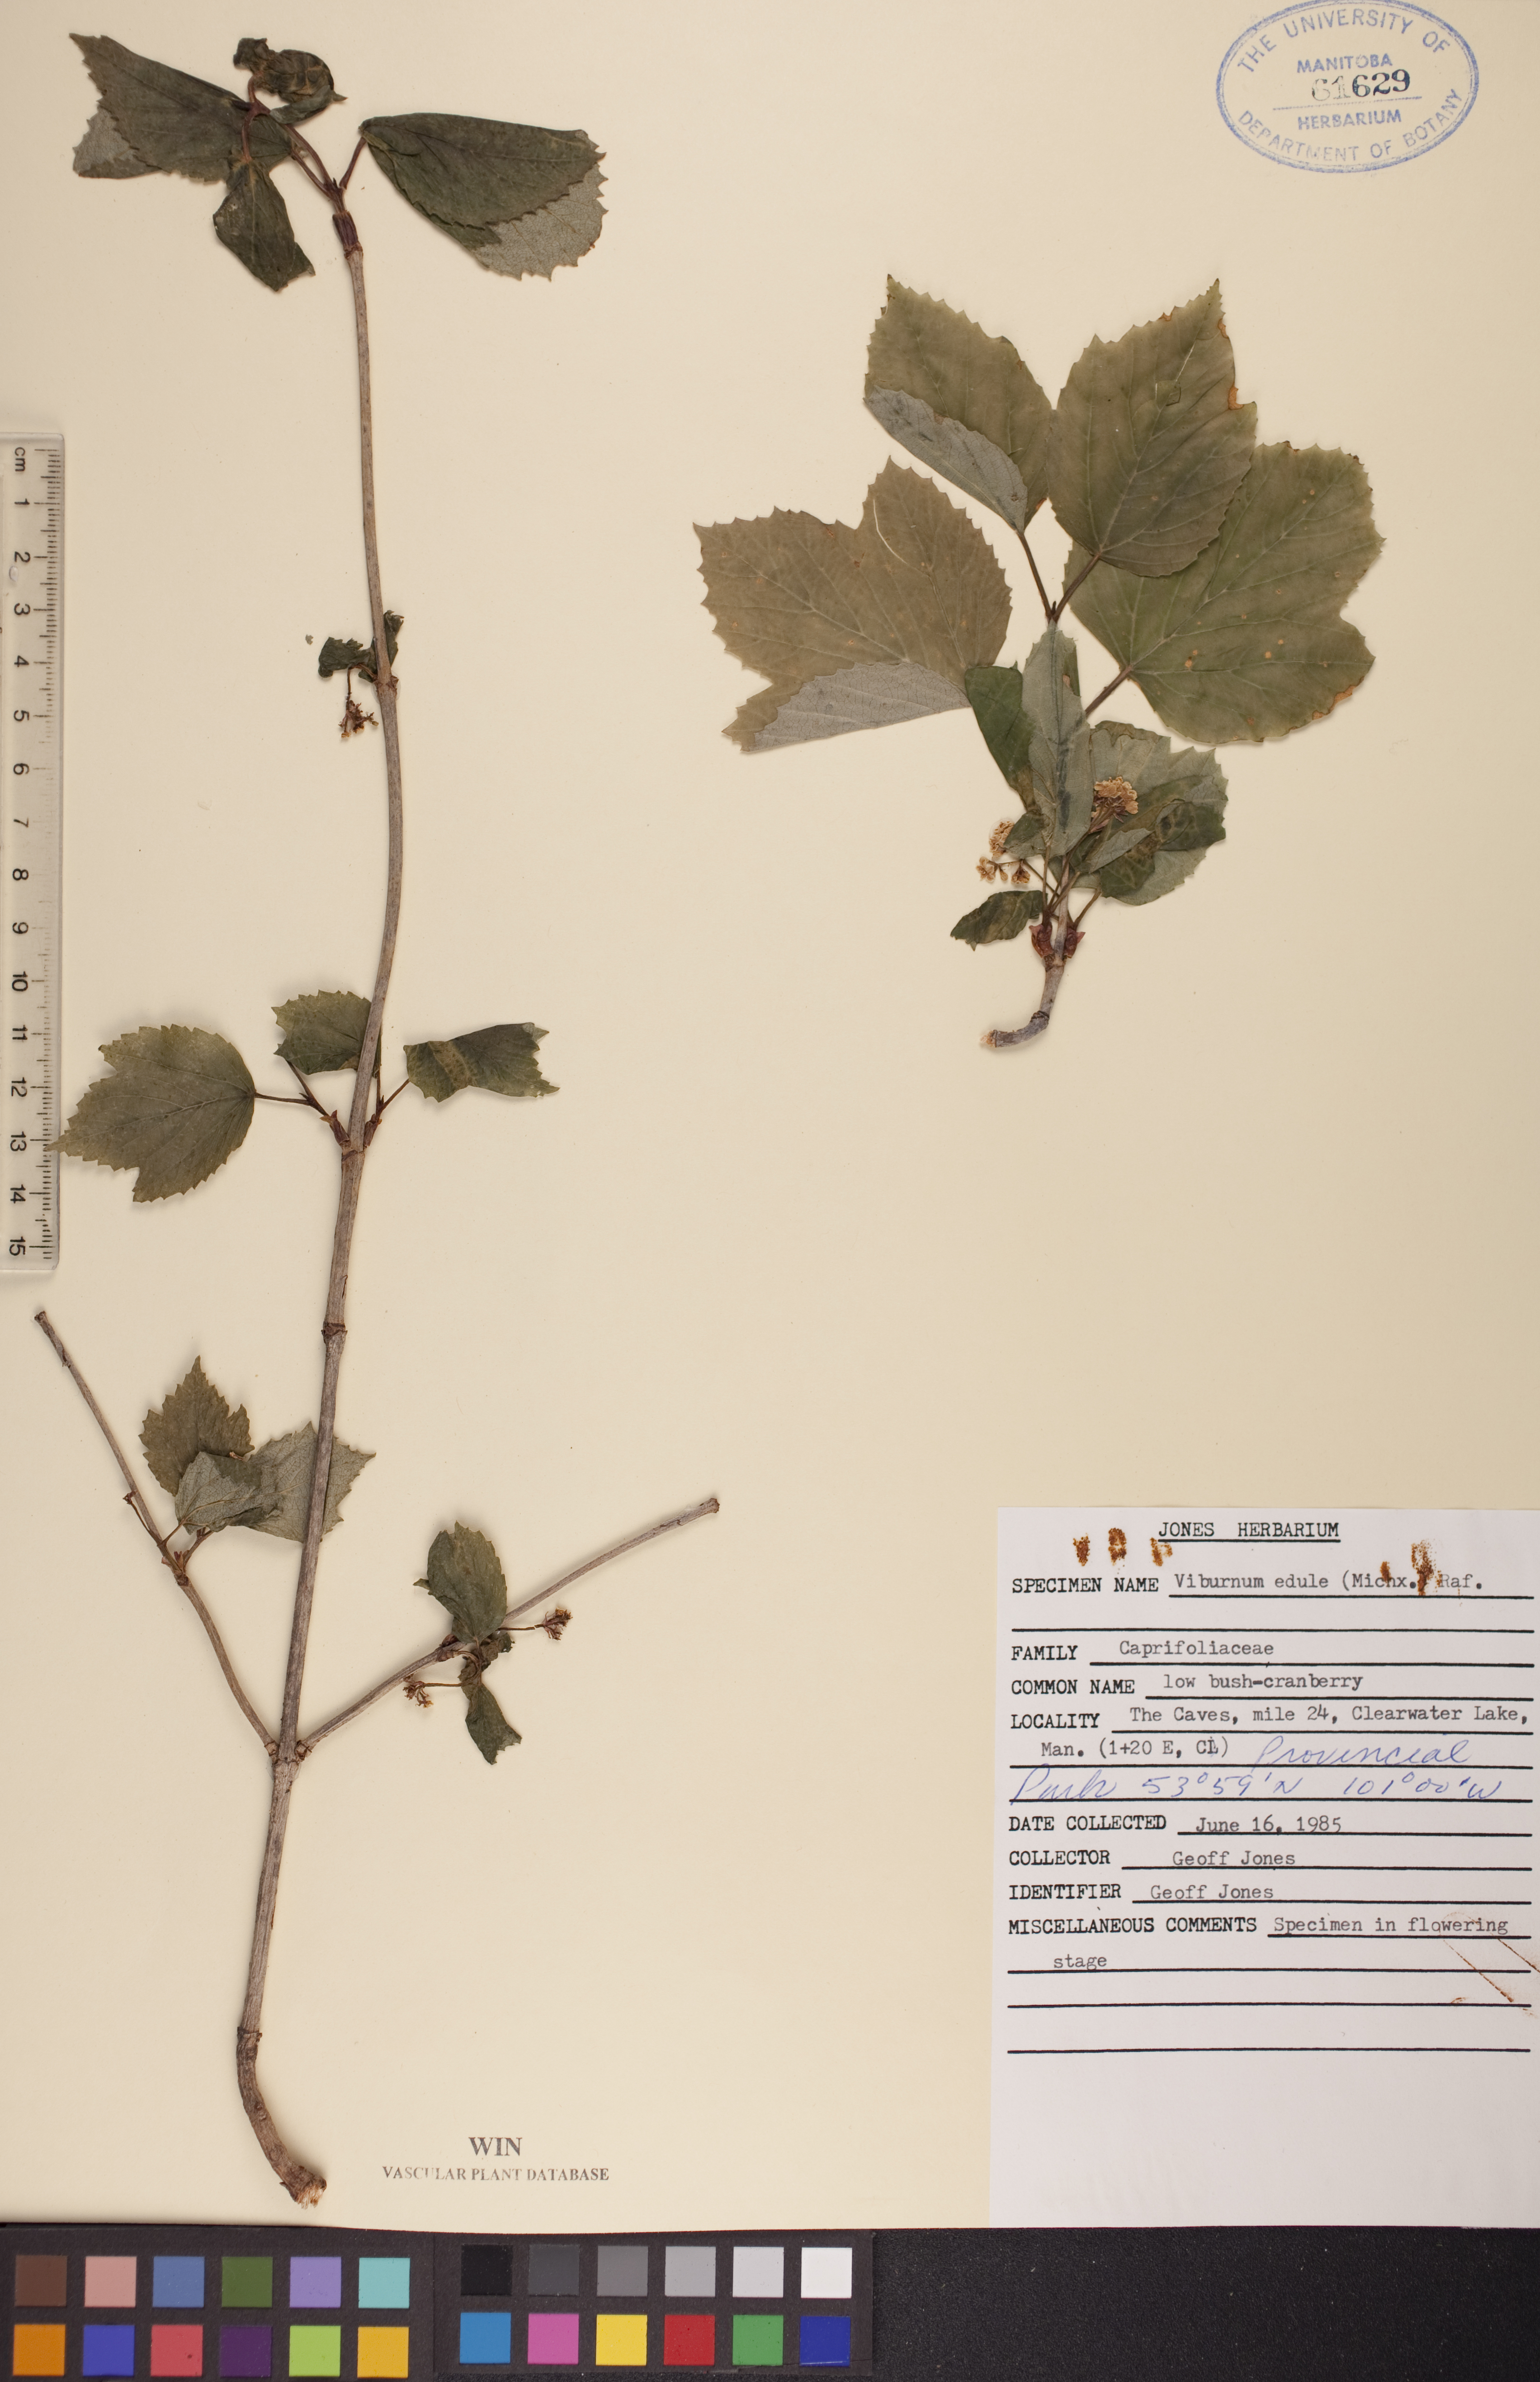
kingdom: Plantae
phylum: Tracheophyta
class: Magnoliopsida
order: Dipsacales
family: Viburnaceae
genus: Viburnum
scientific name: Viburnum edule
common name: Mooseberry
